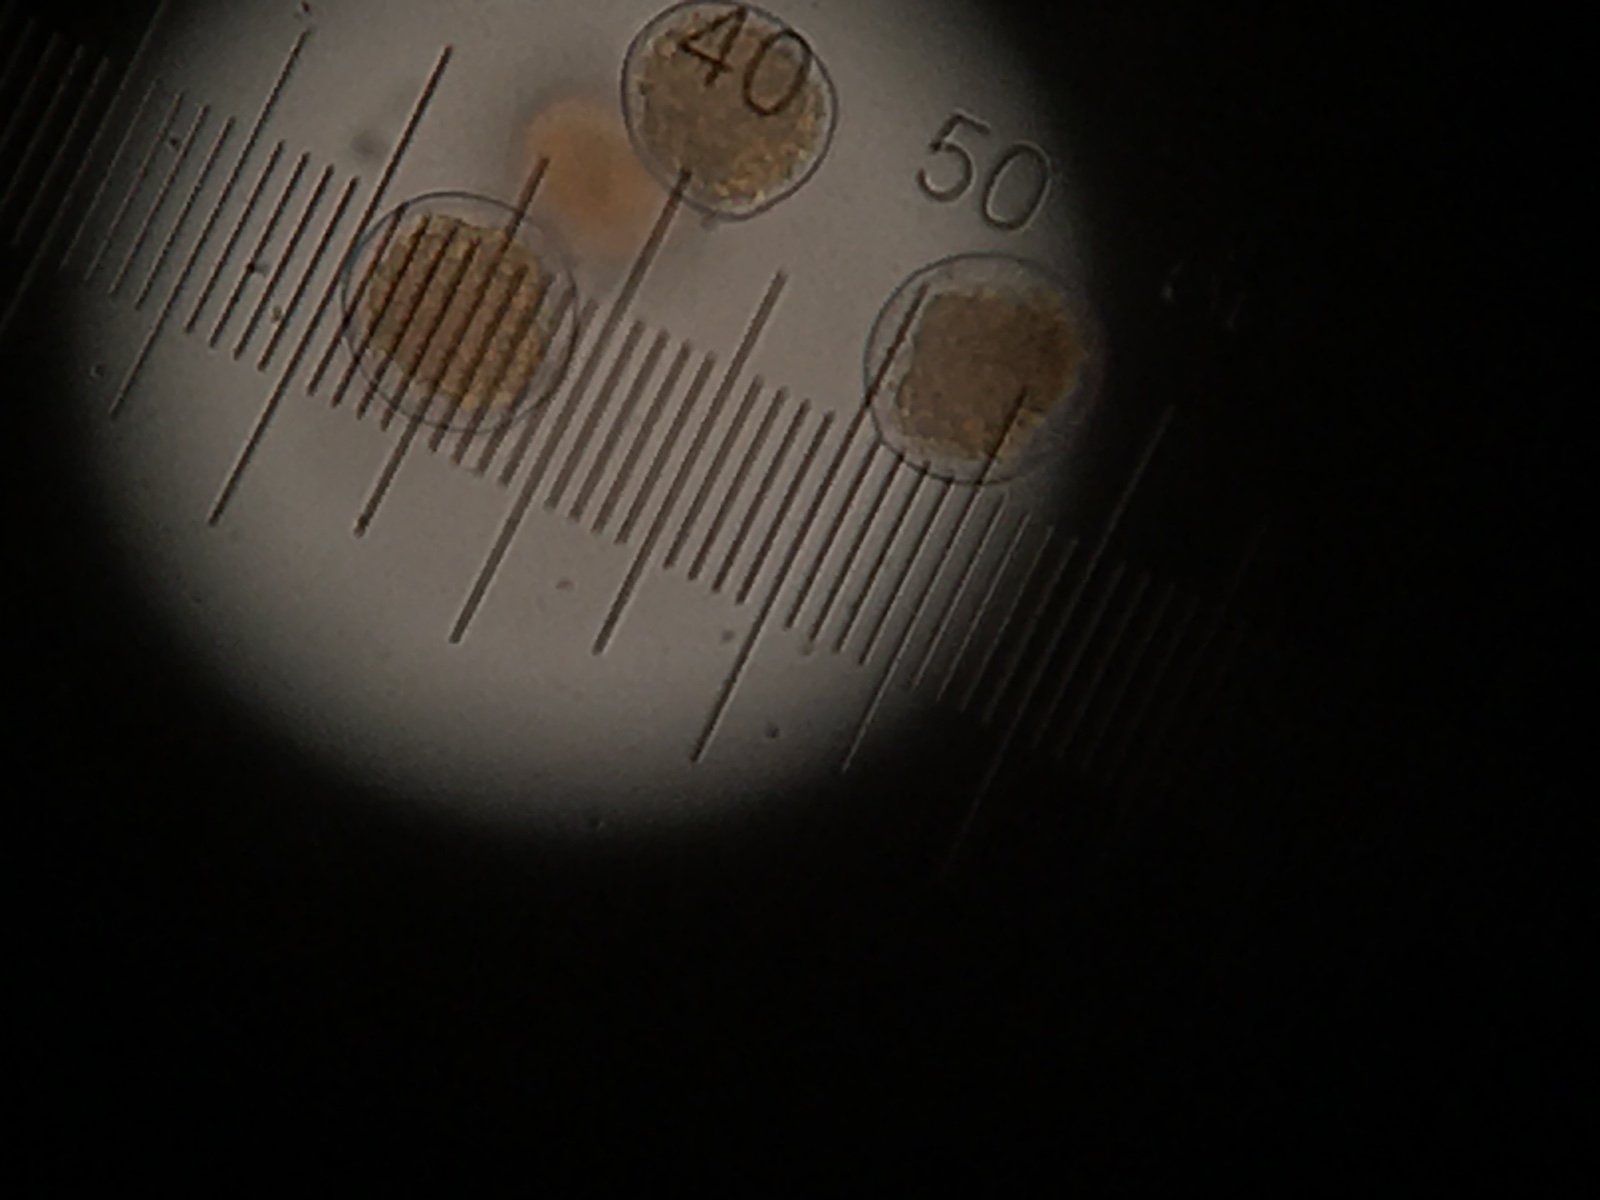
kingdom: Fungi
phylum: Basidiomycota
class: Pucciniomycetes
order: Pucciniales
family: Pucciniaceae
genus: Puccinia
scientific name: Puccinia recondita
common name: Brown rust of wheat
